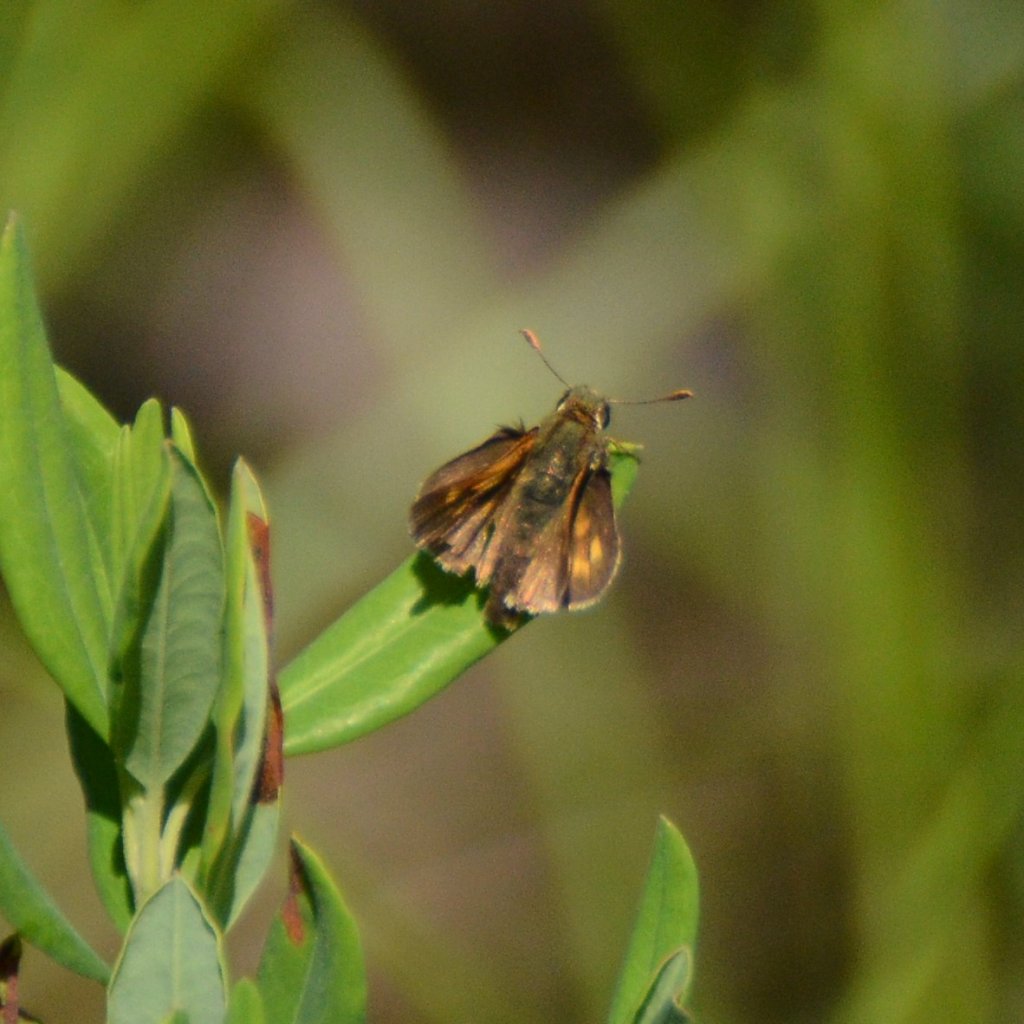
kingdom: Animalia
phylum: Arthropoda
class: Insecta
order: Lepidoptera
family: Hesperiidae
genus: Polites
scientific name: Polites coras
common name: Peck's Skipper
